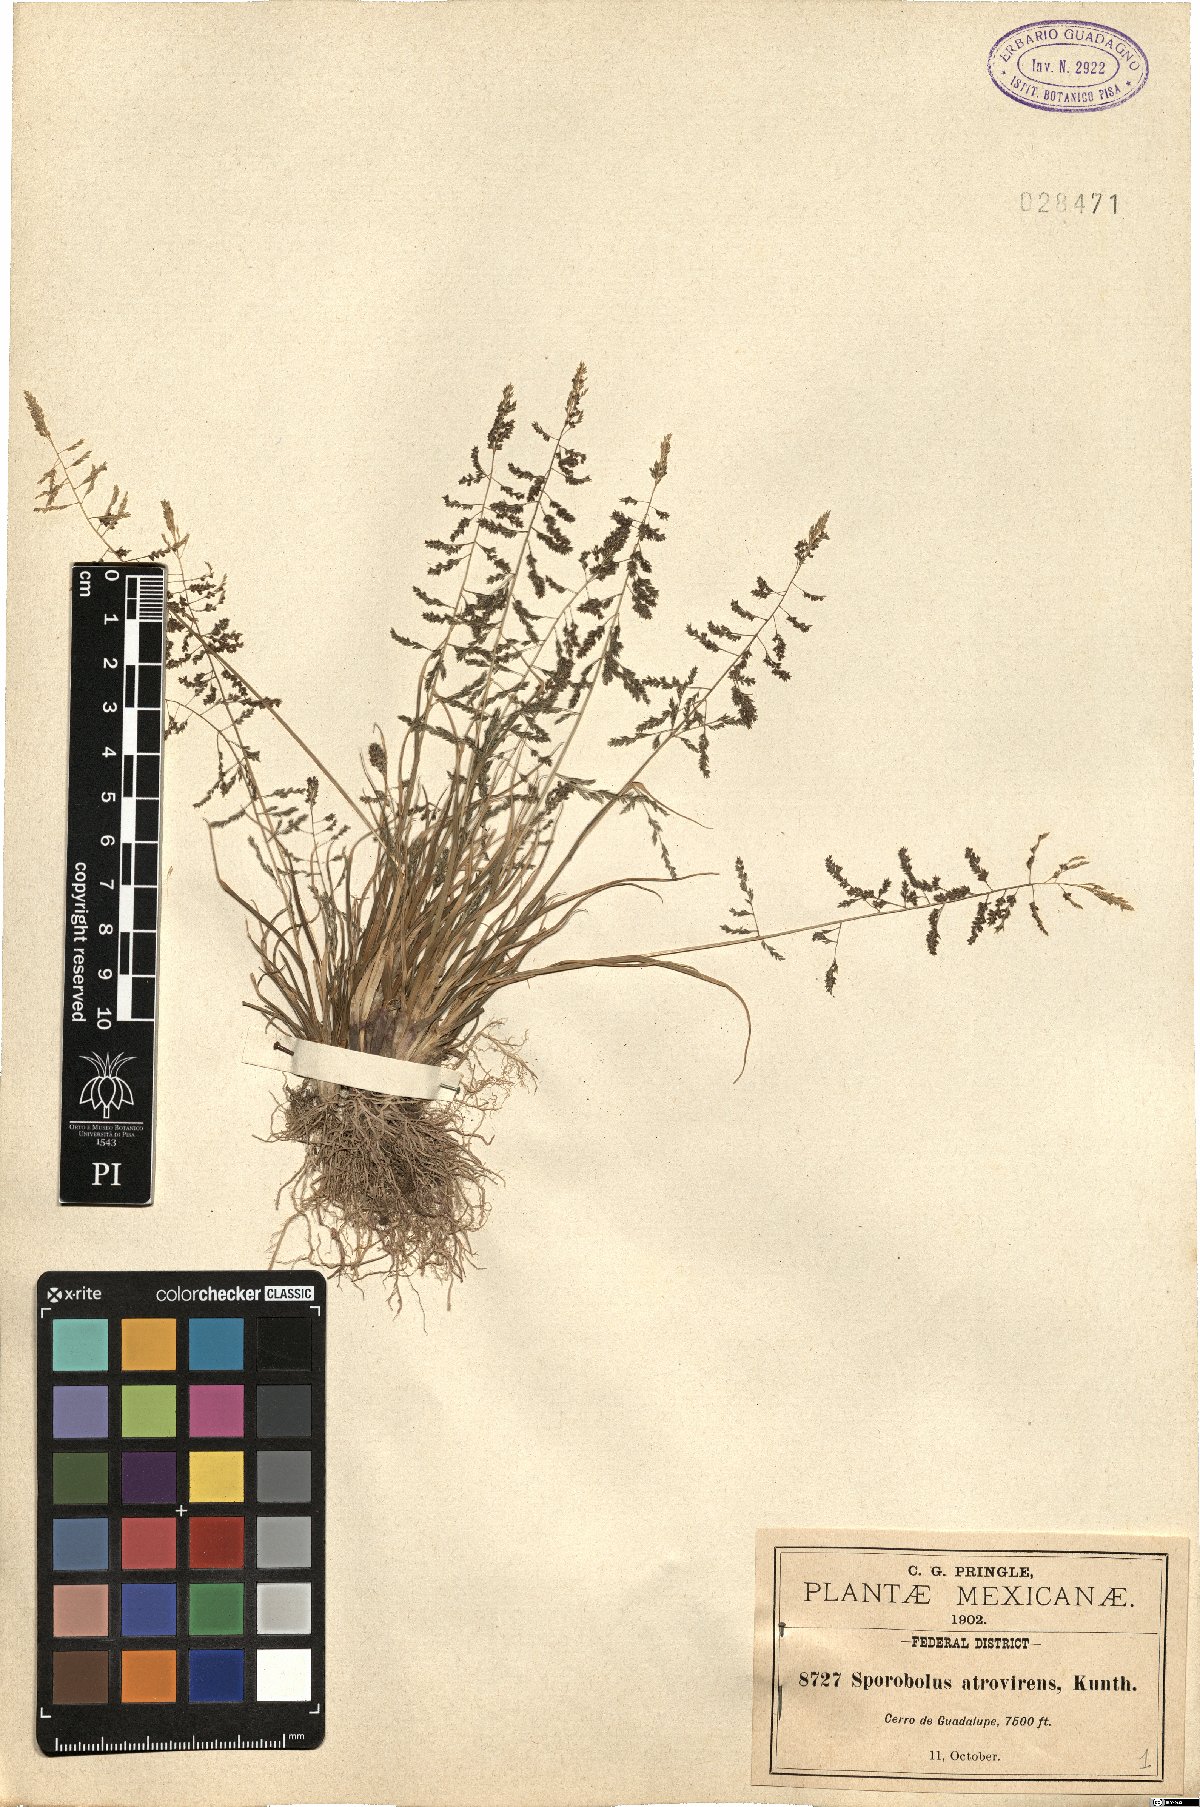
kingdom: Plantae
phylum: Tracheophyta
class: Liliopsida
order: Poales
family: Poaceae
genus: Sporobolus
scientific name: Sporobolus atrovirens
